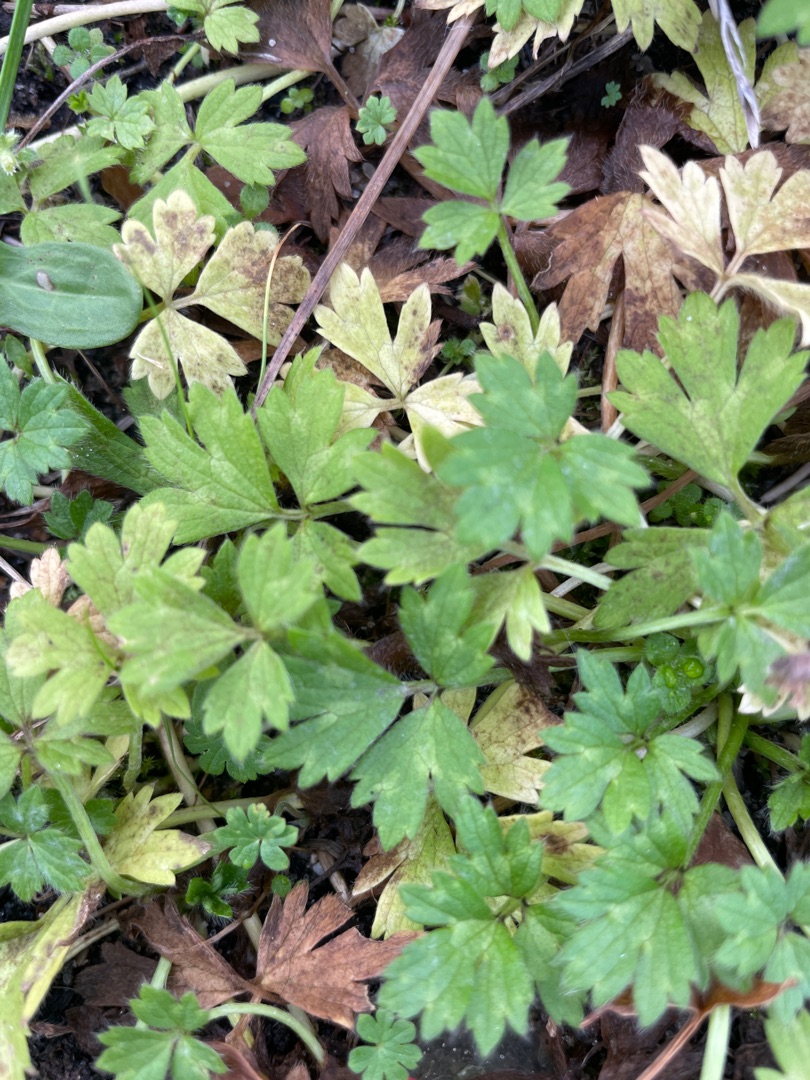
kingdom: Plantae
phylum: Tracheophyta
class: Magnoliopsida
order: Ranunculales
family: Ranunculaceae
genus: Ranunculus
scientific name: Ranunculus repens
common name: Lav ranunkel
